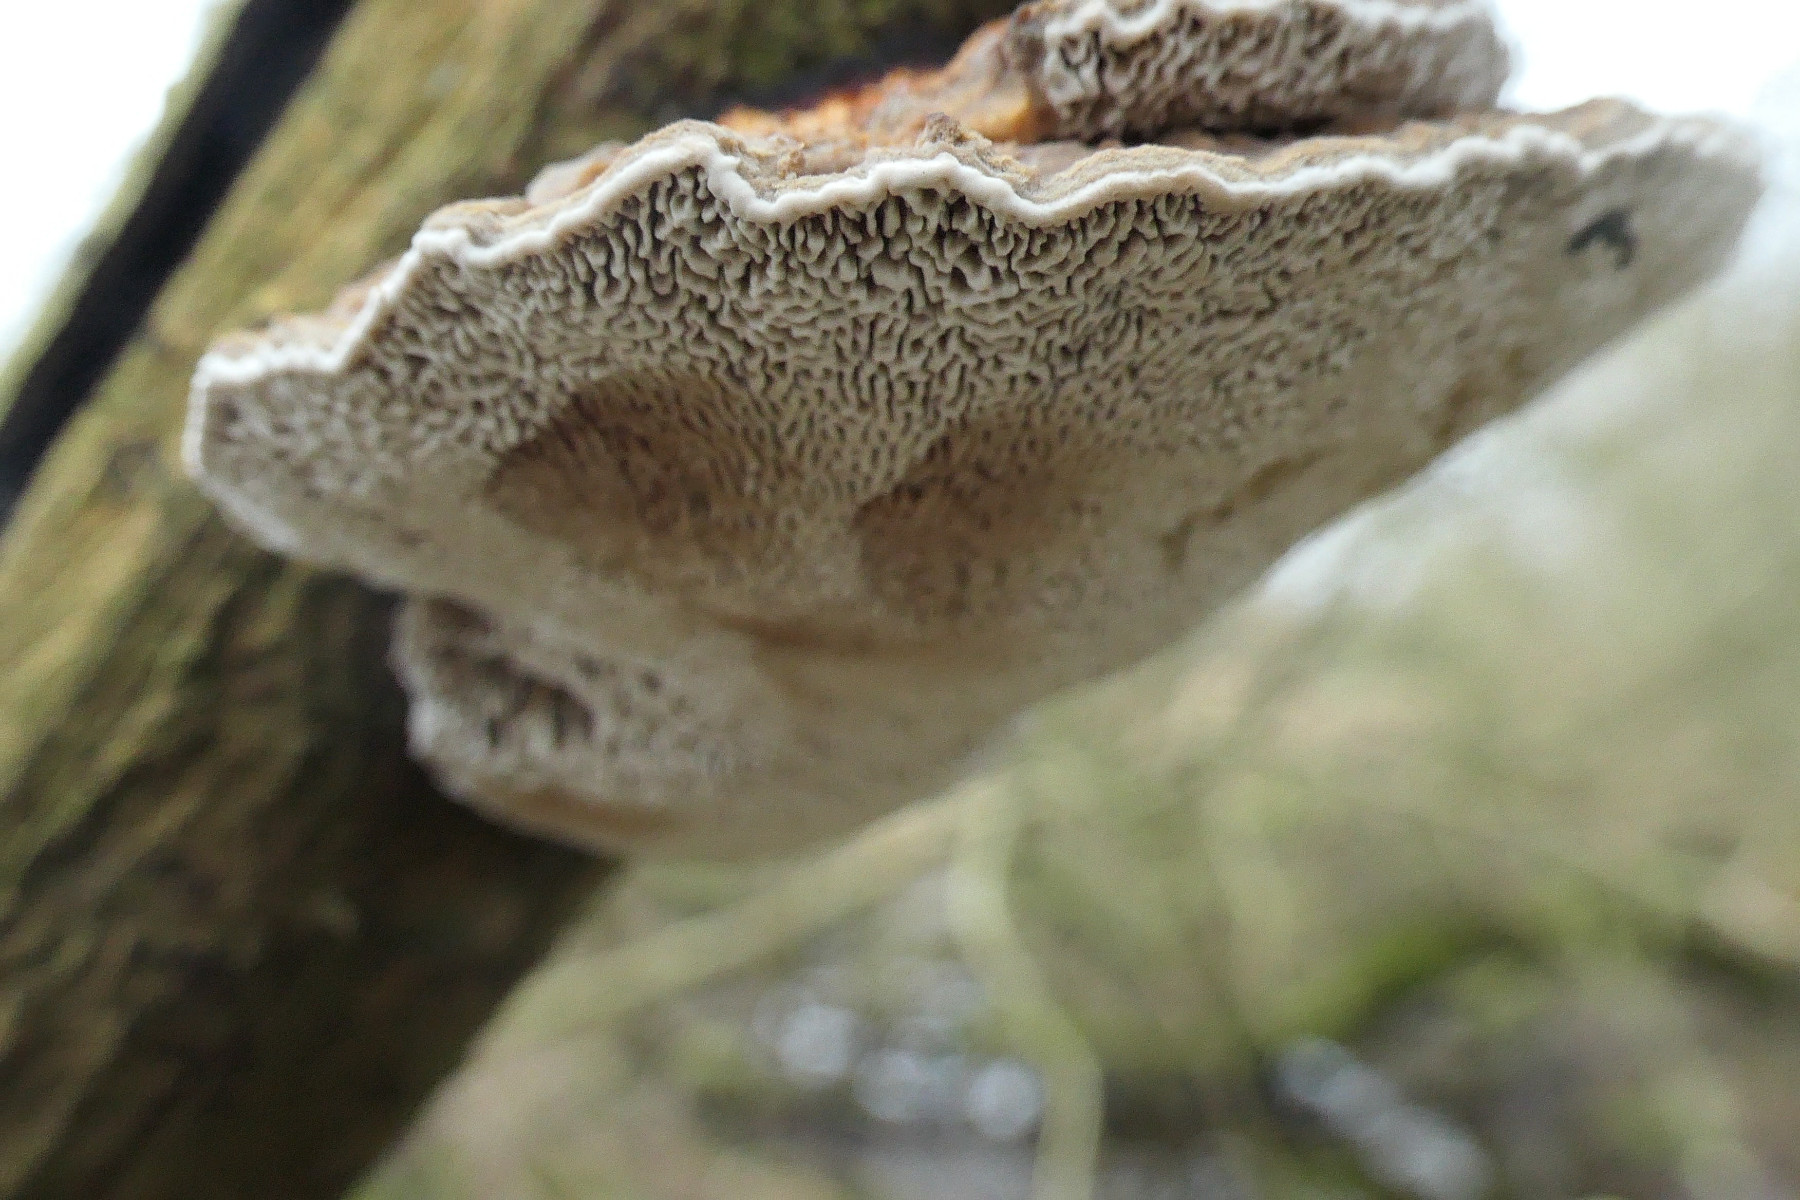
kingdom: Fungi
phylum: Basidiomycota
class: Agaricomycetes
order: Polyporales
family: Polyporaceae
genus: Daedaleopsis
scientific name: Daedaleopsis confragosa
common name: rødmende læderporesvamp
